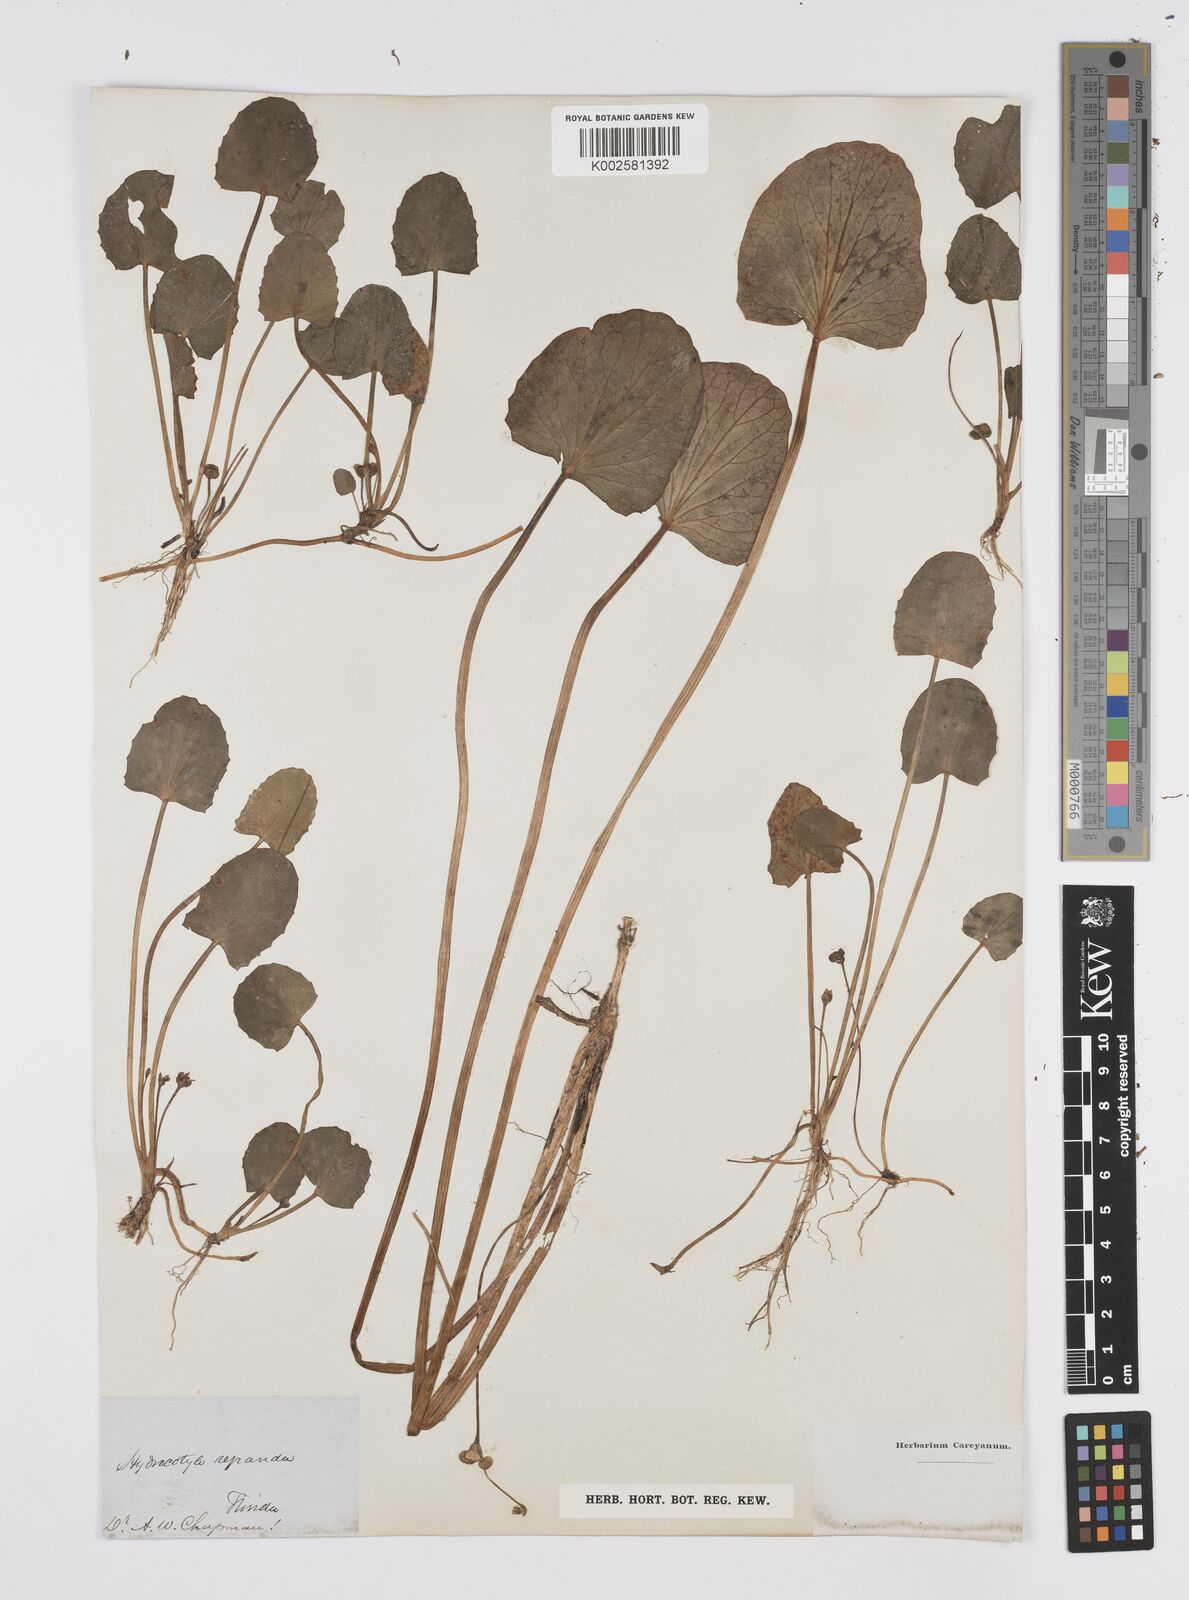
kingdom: Plantae
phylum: Tracheophyta
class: Magnoliopsida
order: Apiales
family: Apiaceae
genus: Centella
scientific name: Centella erecta
